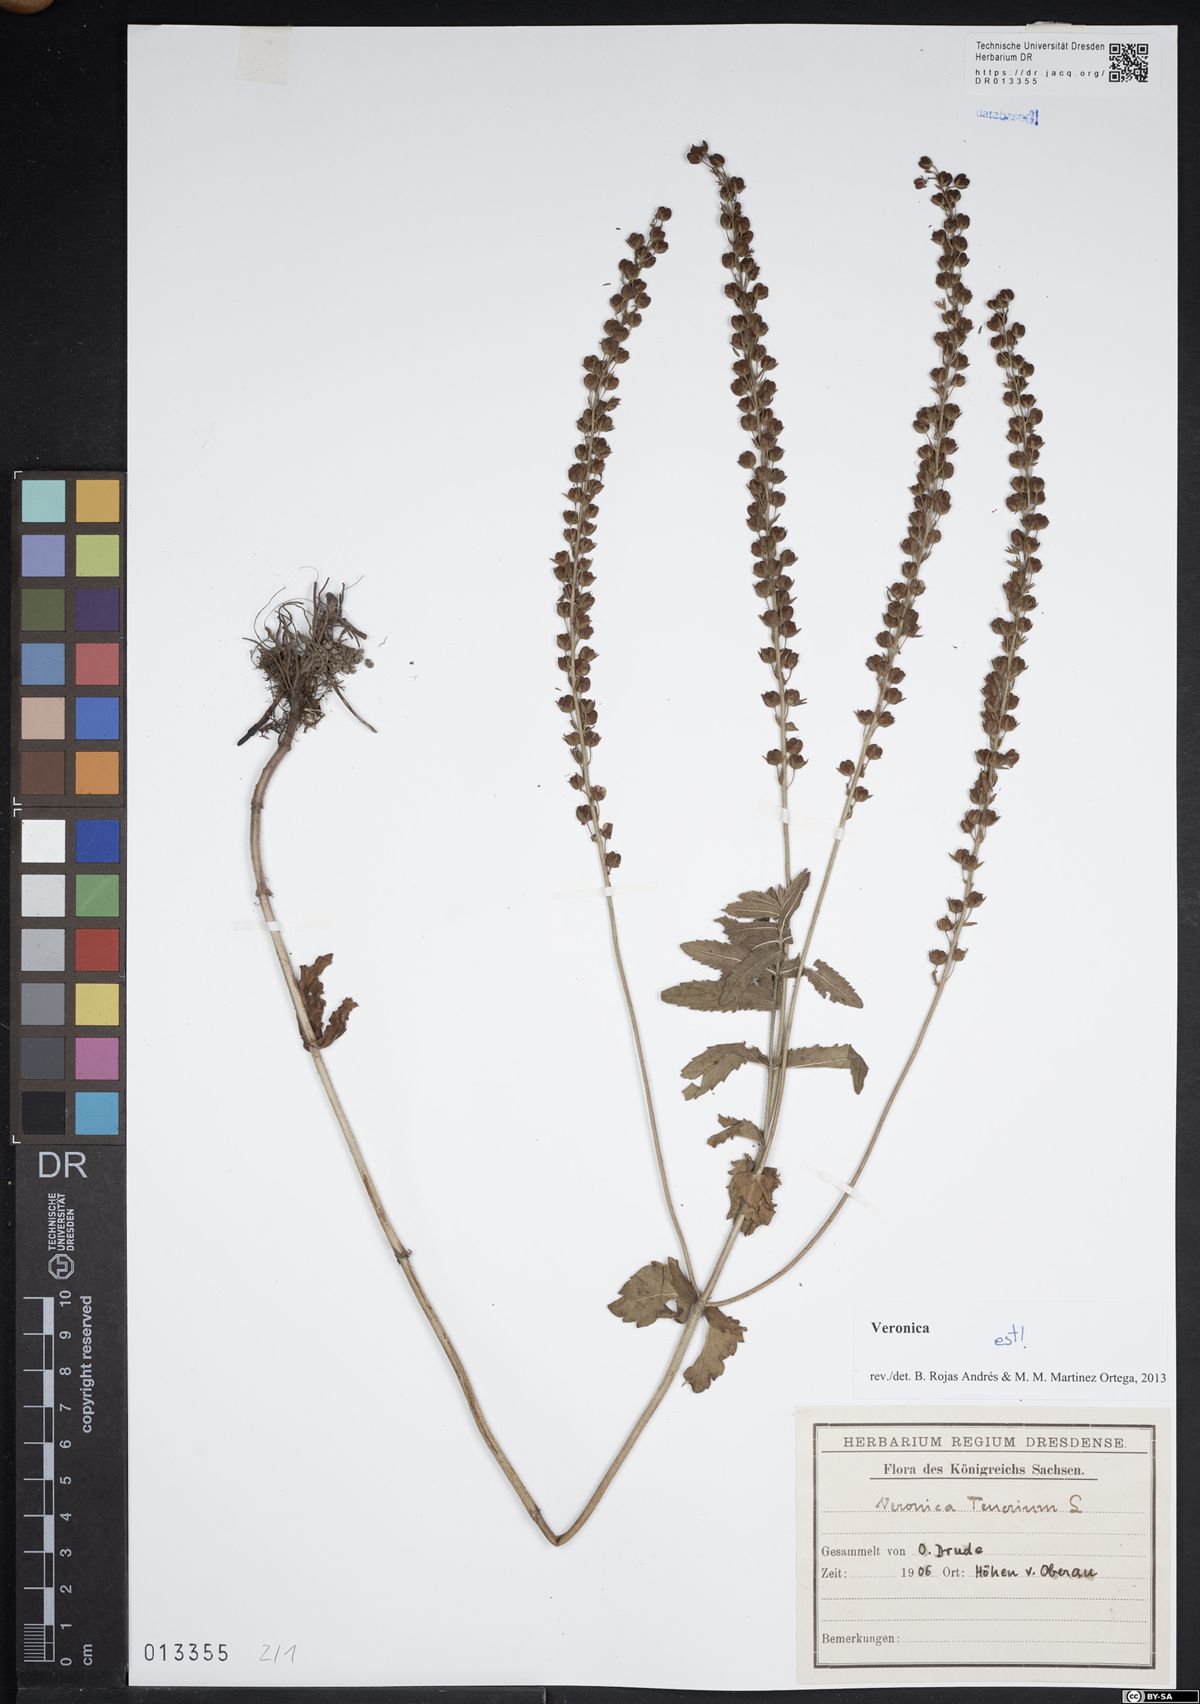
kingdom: Plantae
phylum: Tracheophyta
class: Magnoliopsida
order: Lamiales
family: Plantaginaceae
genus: Veronica
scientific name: Veronica teucrium
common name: Large speedwell
